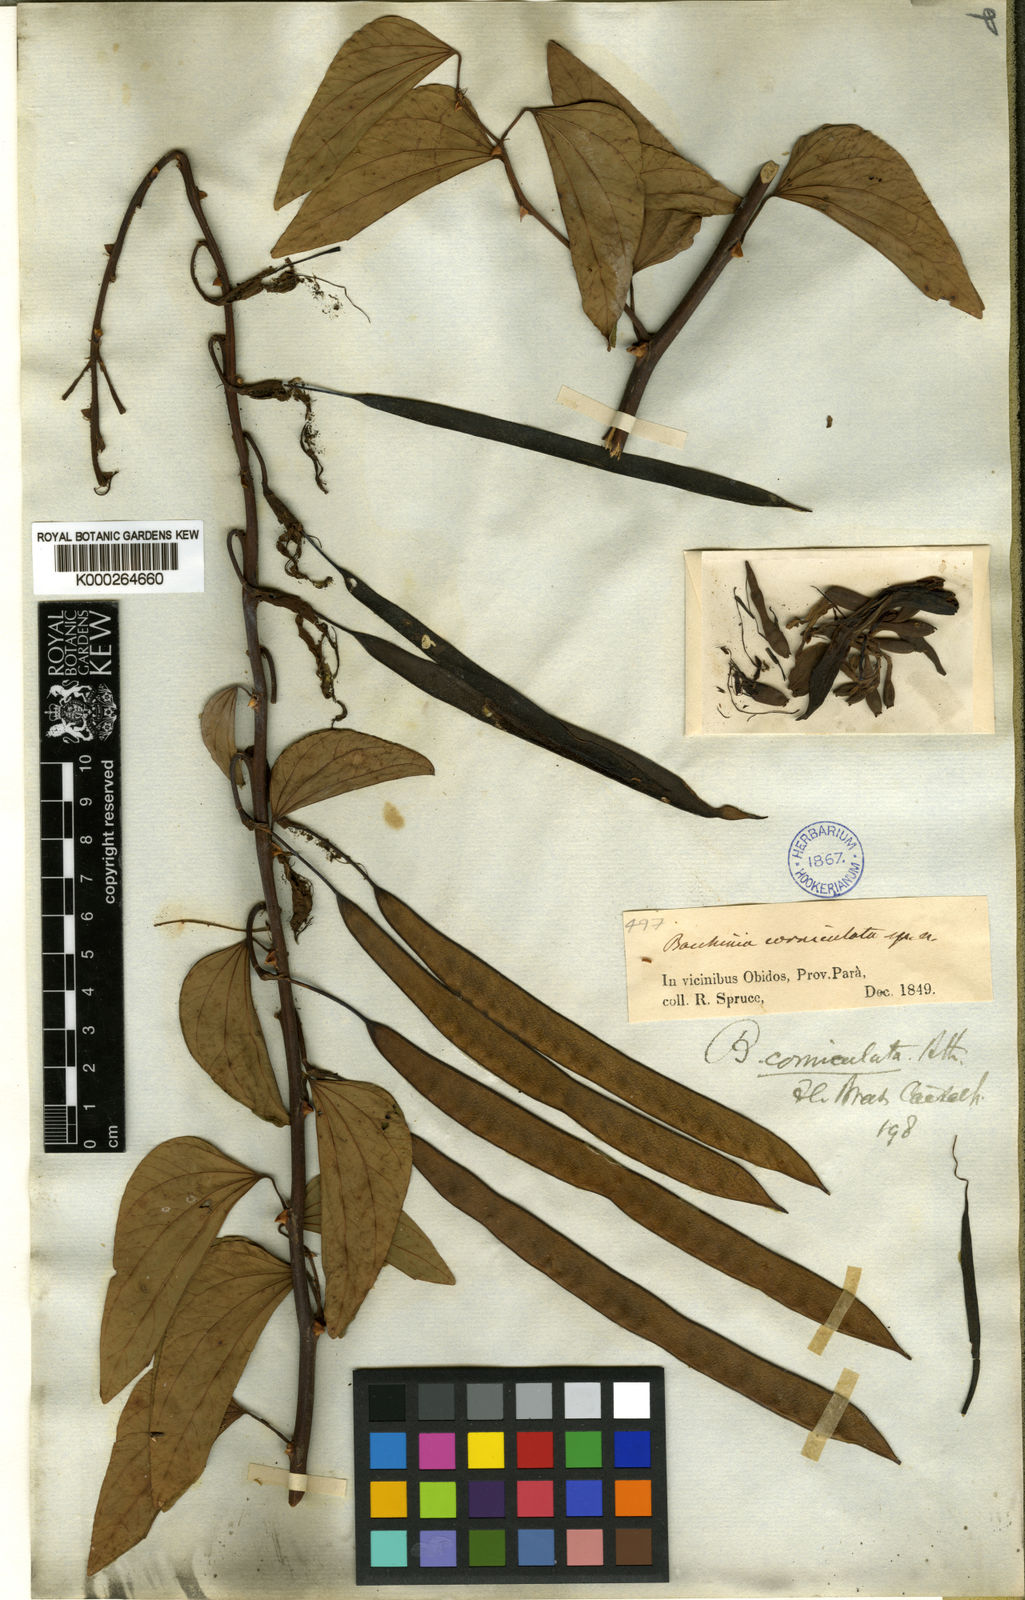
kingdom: Plantae
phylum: Tracheophyta
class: Magnoliopsida
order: Fabales
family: Fabaceae
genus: Bauhinia
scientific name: Bauhinia corniculata
